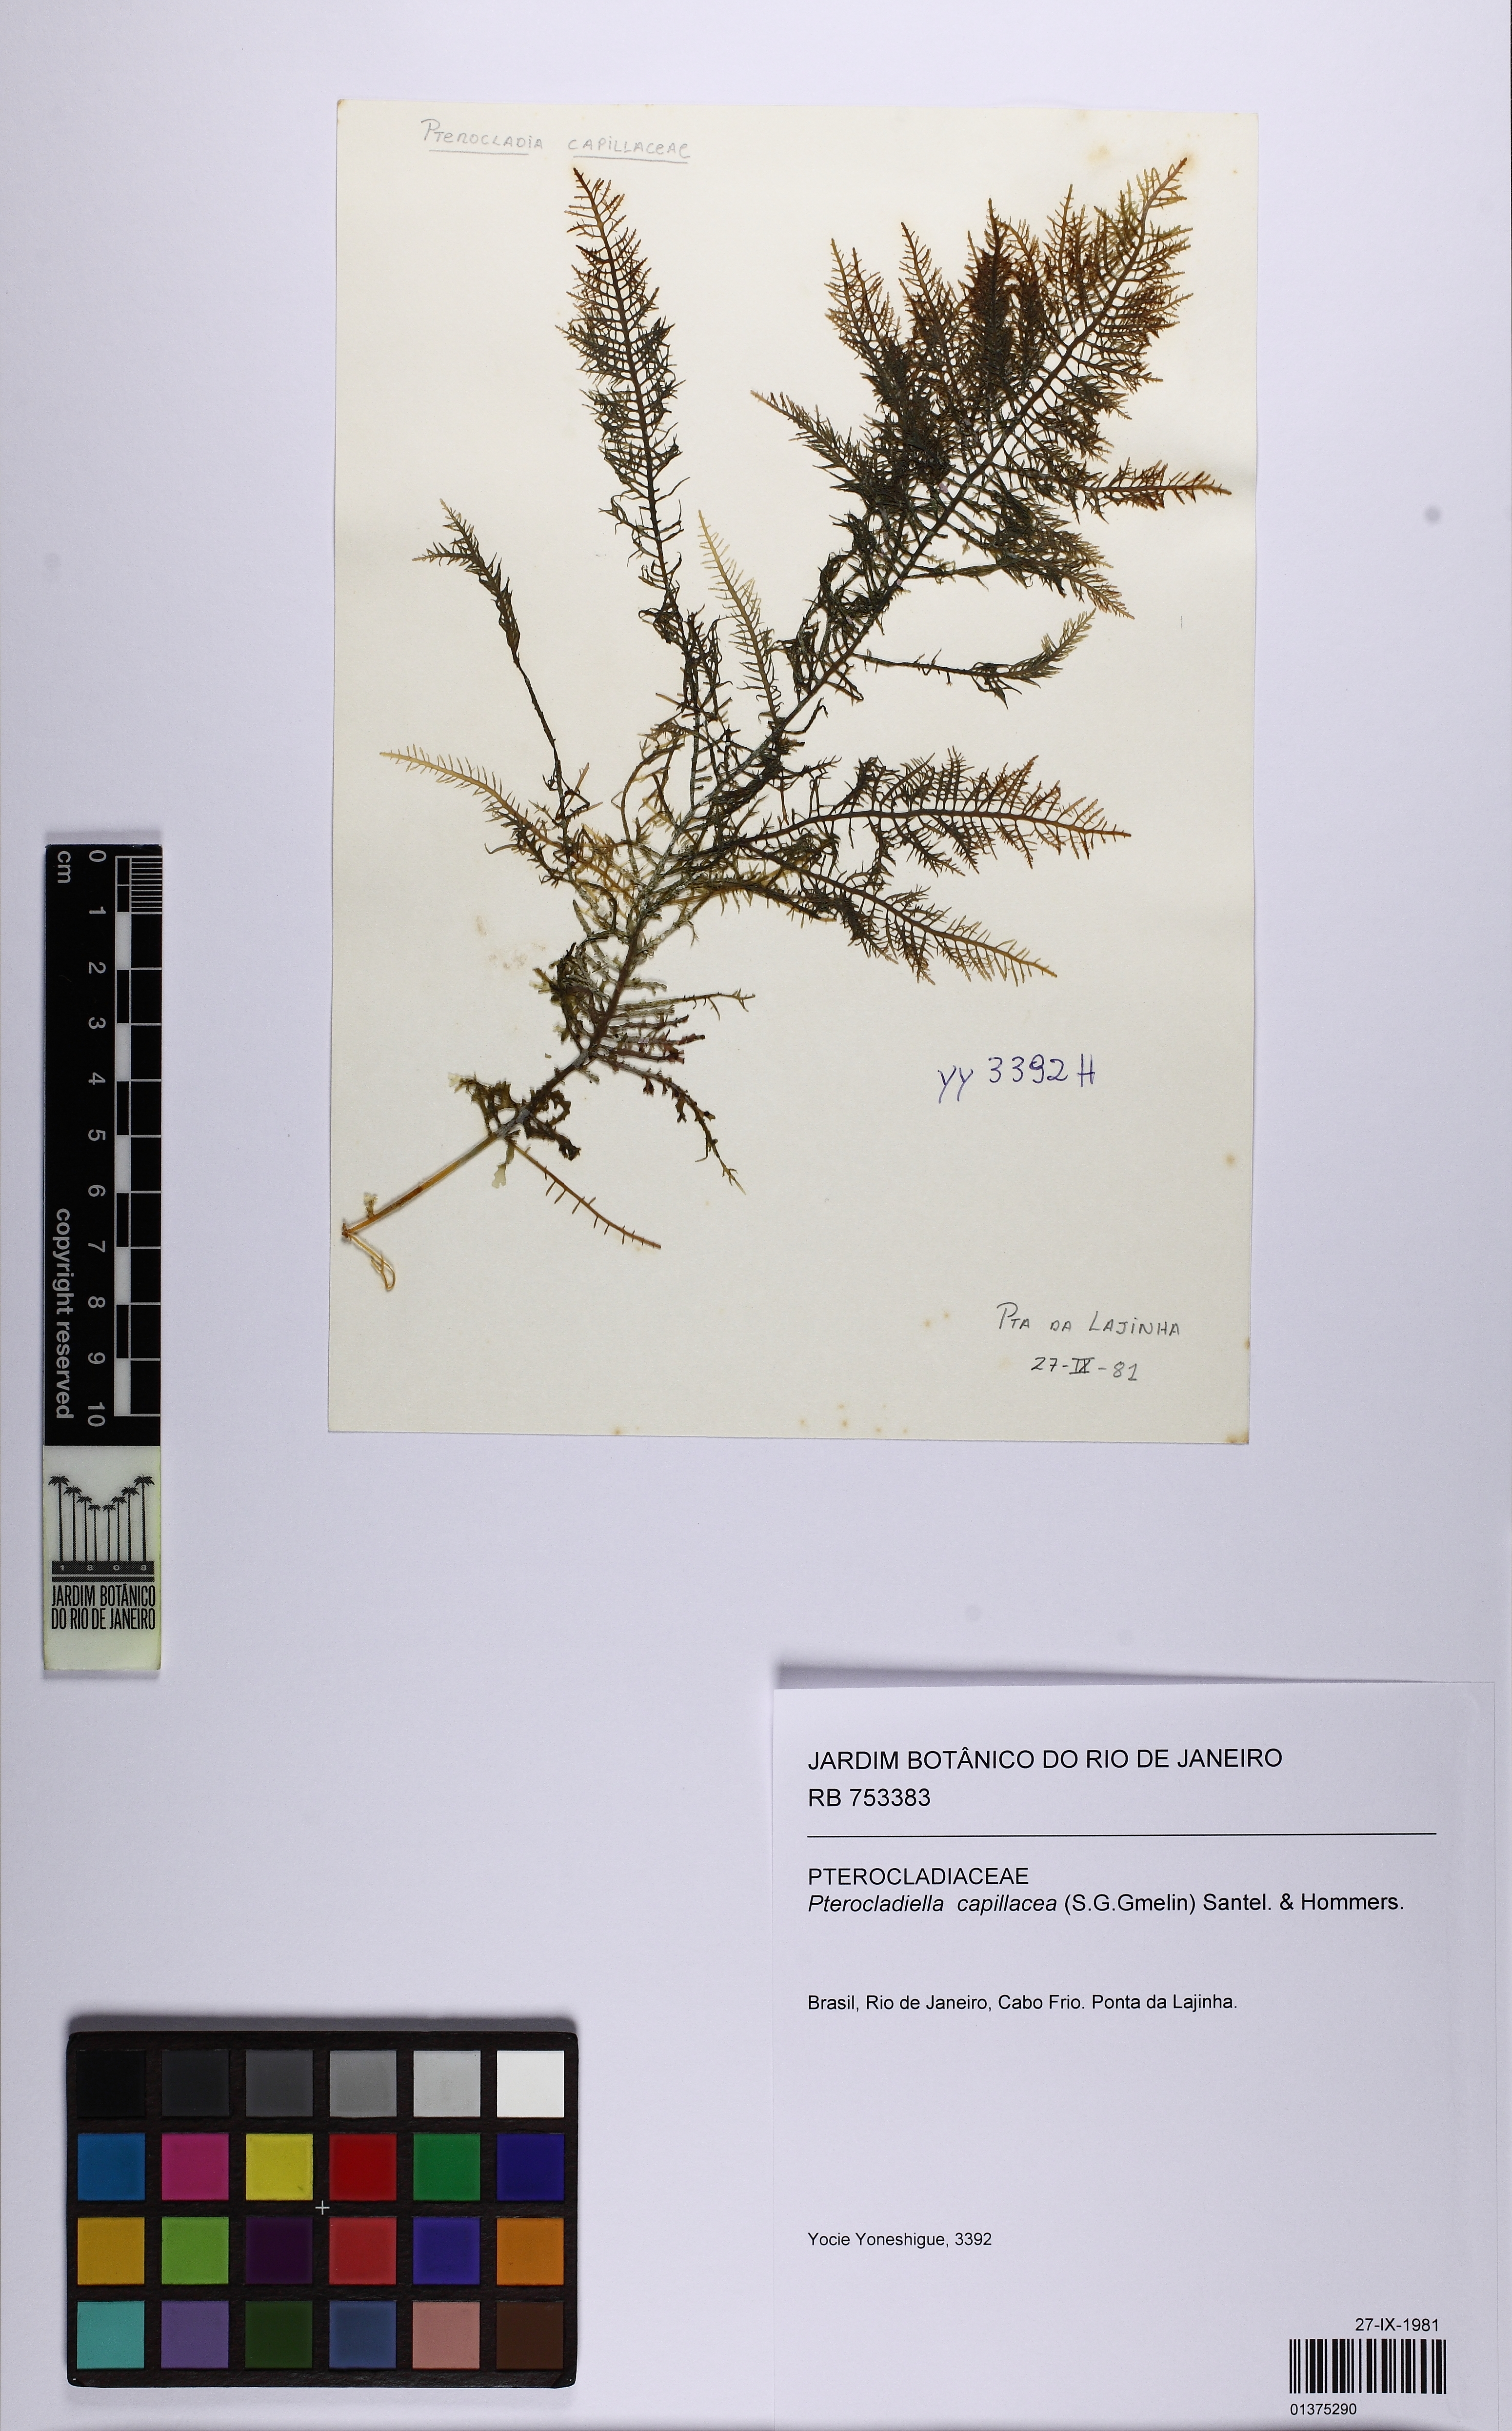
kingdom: Plantae
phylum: Rhodophyta
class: Florideophyceae
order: Gelidiales
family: Pterocladiaceae
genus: Pterocladiella
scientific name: Pterocladiella capillacea
